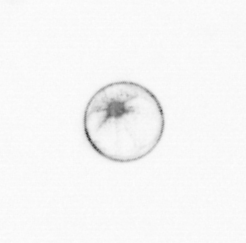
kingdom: Chromista
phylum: Myzozoa
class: Dinophyceae
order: Noctilucales
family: Noctilucaceae
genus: Noctiluca
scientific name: Noctiluca scintillans
